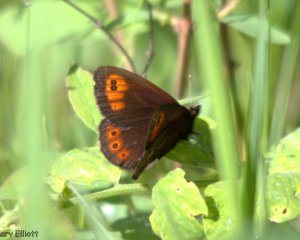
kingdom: Animalia
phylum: Arthropoda
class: Insecta
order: Lepidoptera
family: Nymphalidae
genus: Erebia
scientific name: Erebia epipsodea
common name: Common Alpine
